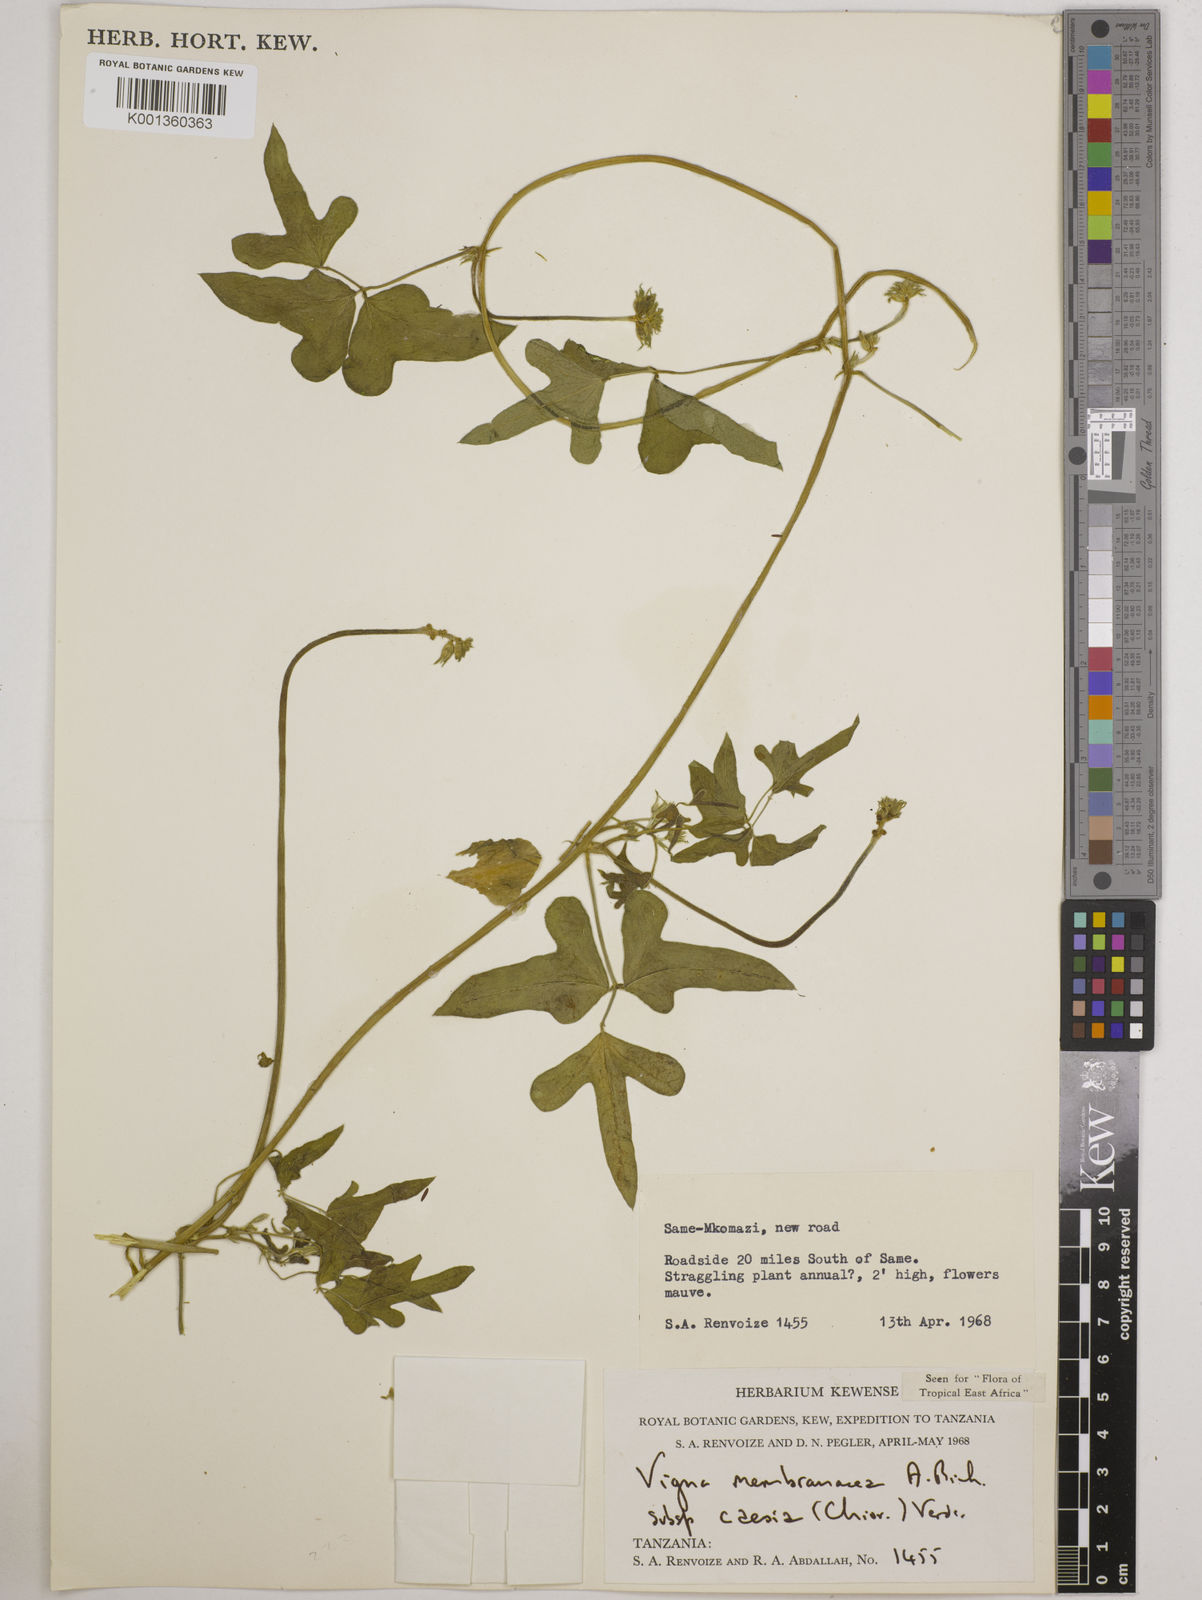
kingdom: Plantae
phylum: Tracheophyta
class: Magnoliopsida
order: Fabales
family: Fabaceae
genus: Vigna
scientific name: Vigna
